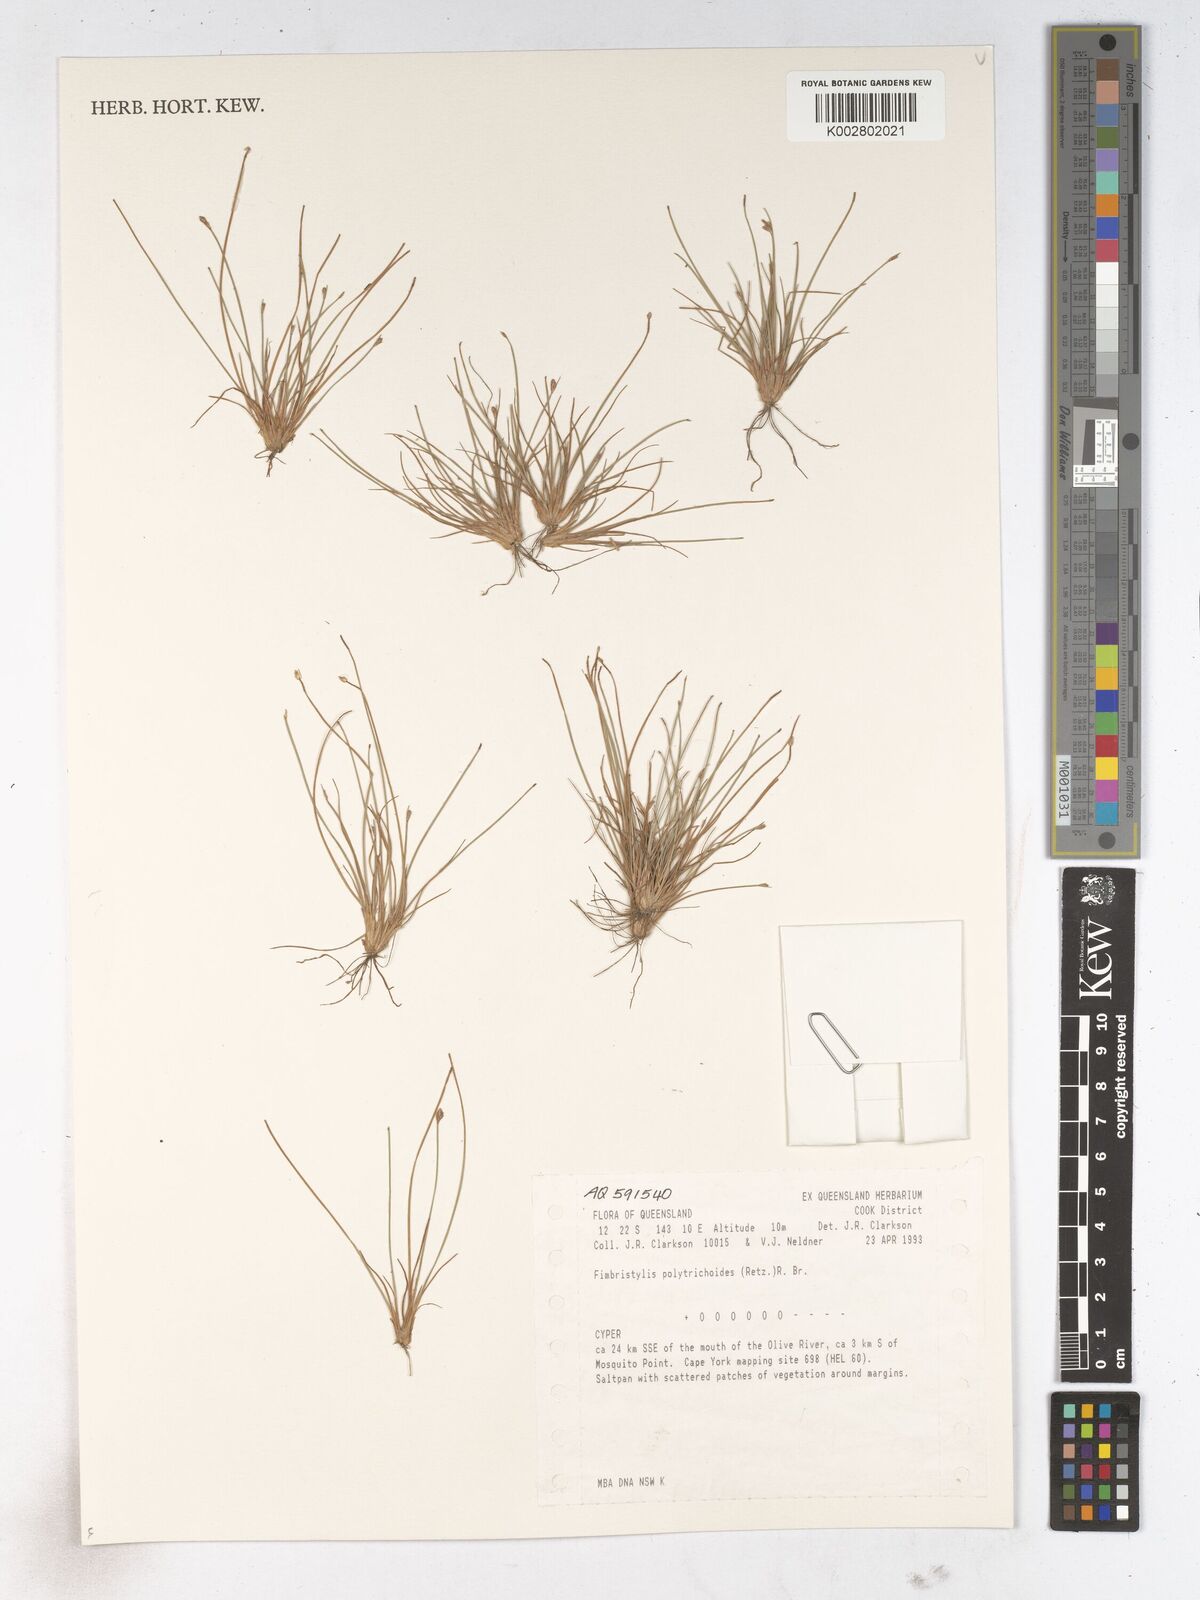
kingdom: Plantae
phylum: Tracheophyta
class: Liliopsida
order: Poales
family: Cyperaceae
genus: Fimbristylis
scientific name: Fimbristylis polytrichoides
